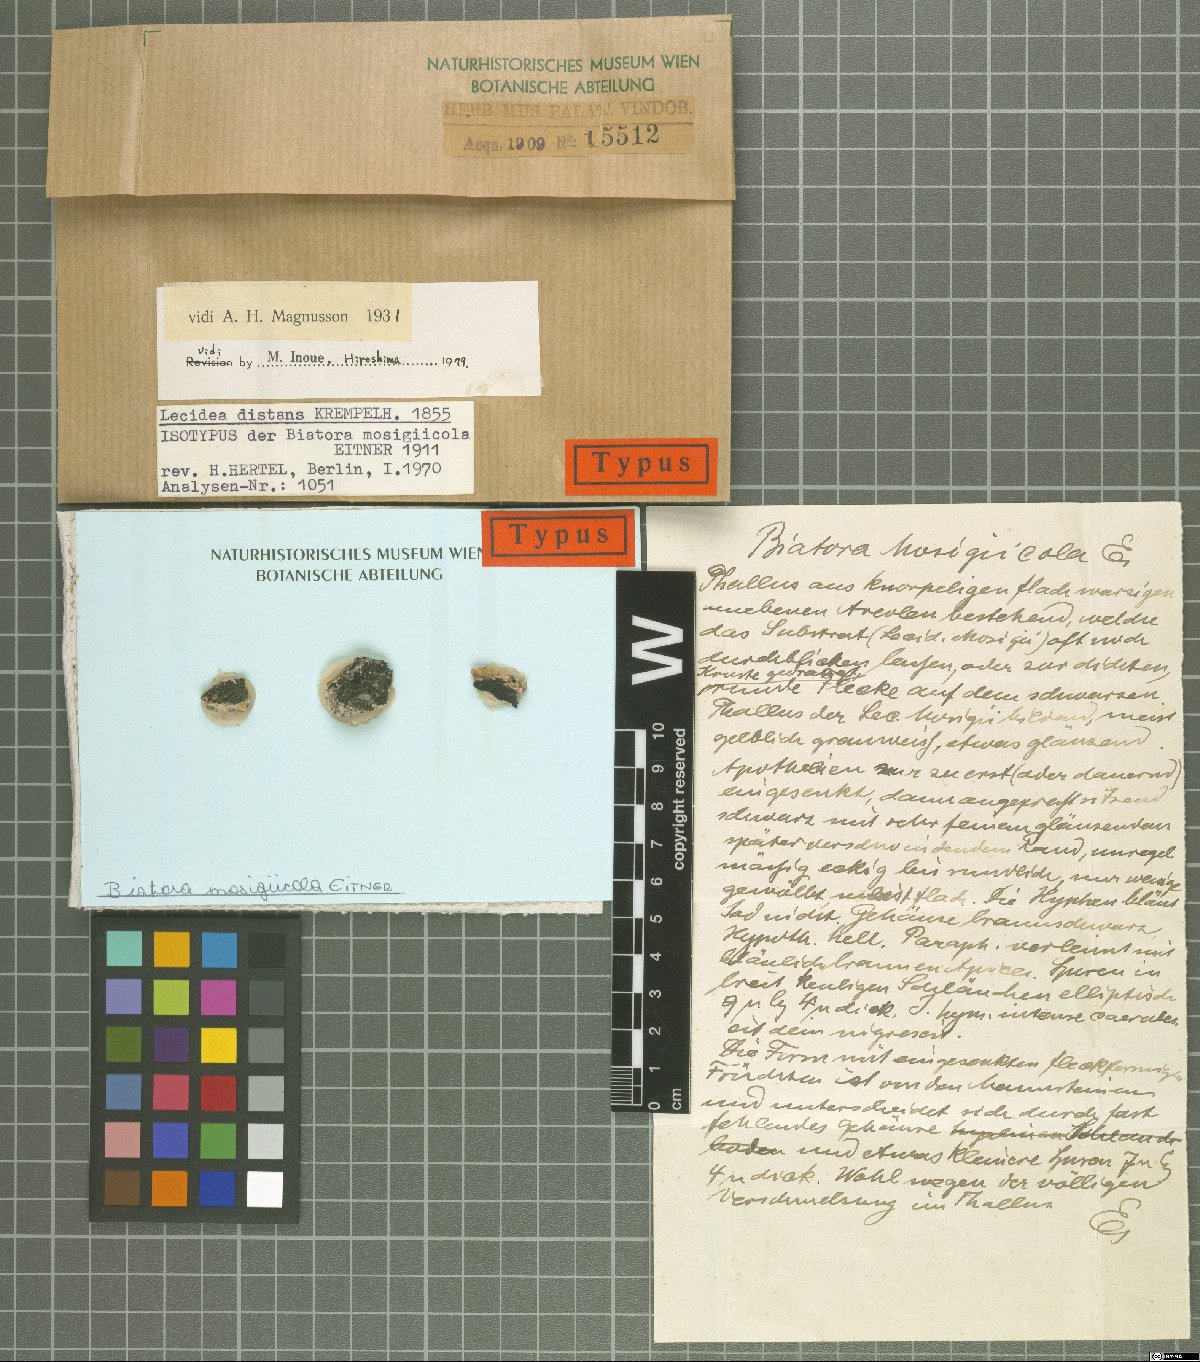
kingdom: Fungi
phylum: Ascomycota
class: Lecanoromycetes
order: Lecanorales
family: Ramalinaceae
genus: Biatora
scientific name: Biatora
